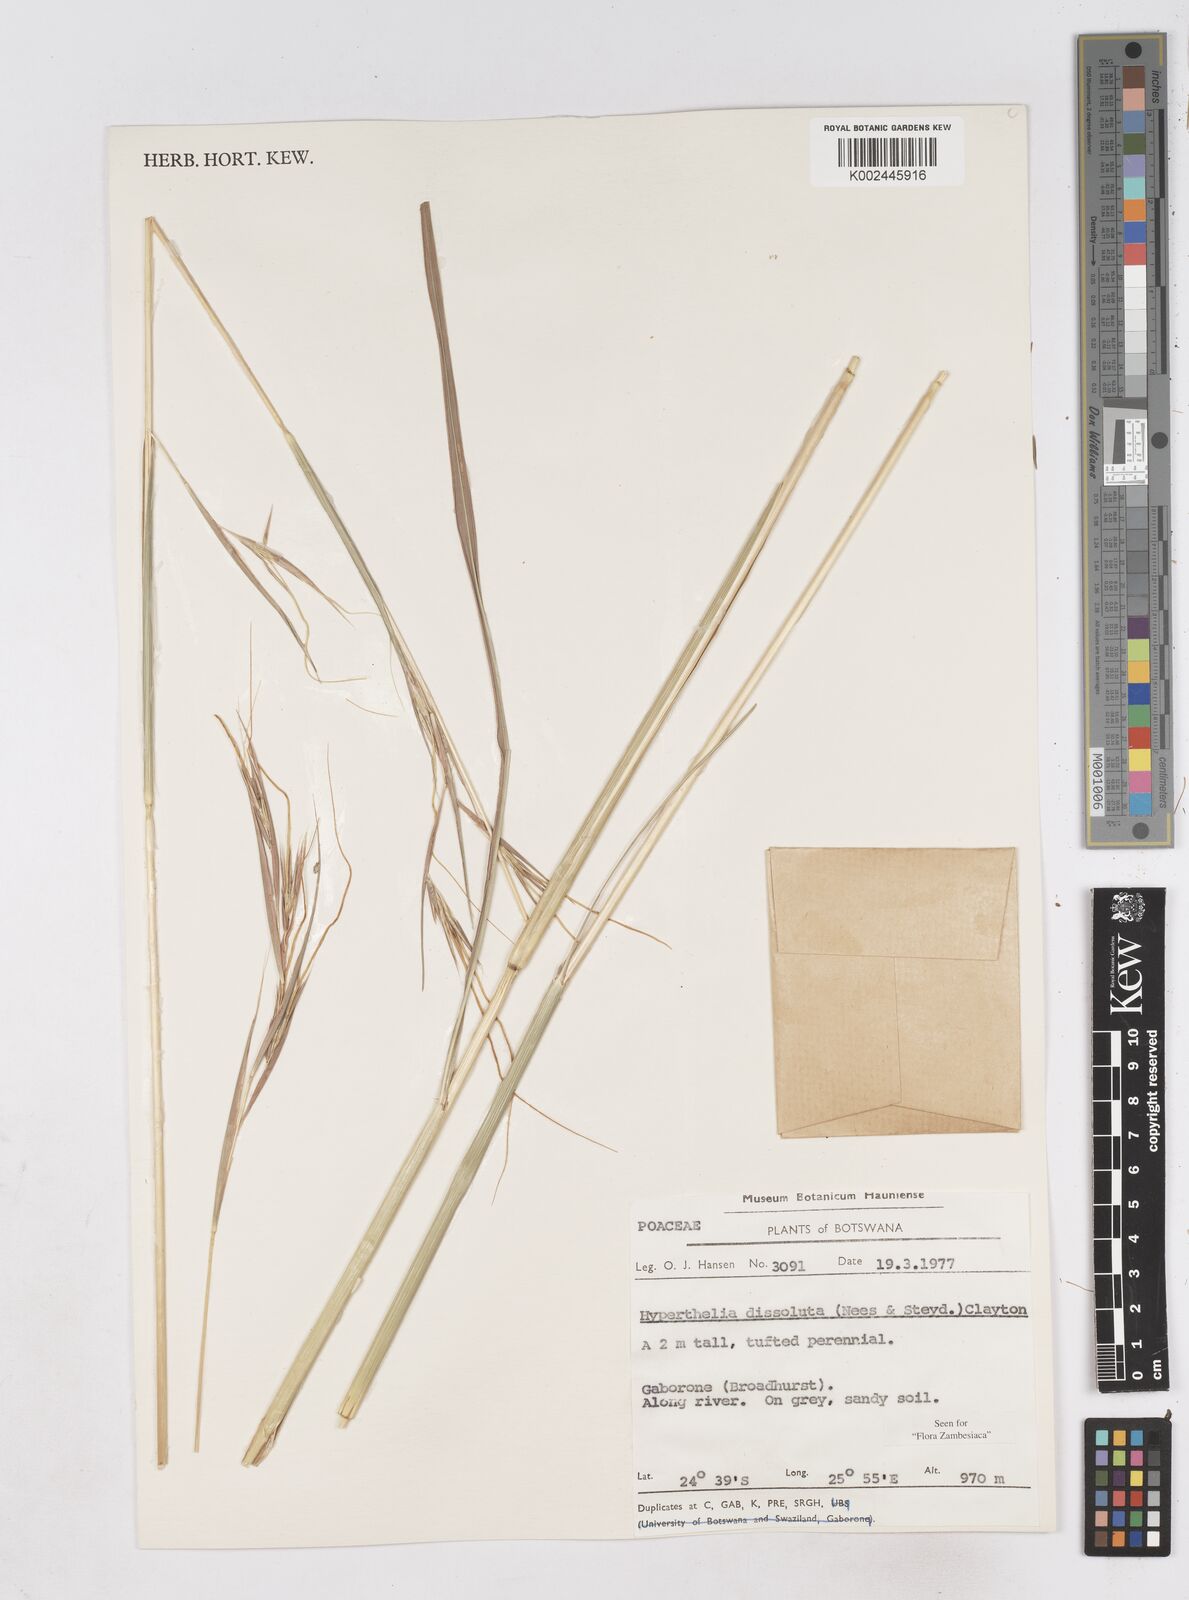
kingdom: Plantae
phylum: Tracheophyta
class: Liliopsida
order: Poales
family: Poaceae
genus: Hyperthelia
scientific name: Hyperthelia dissoluta
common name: Yellow thatching grass
